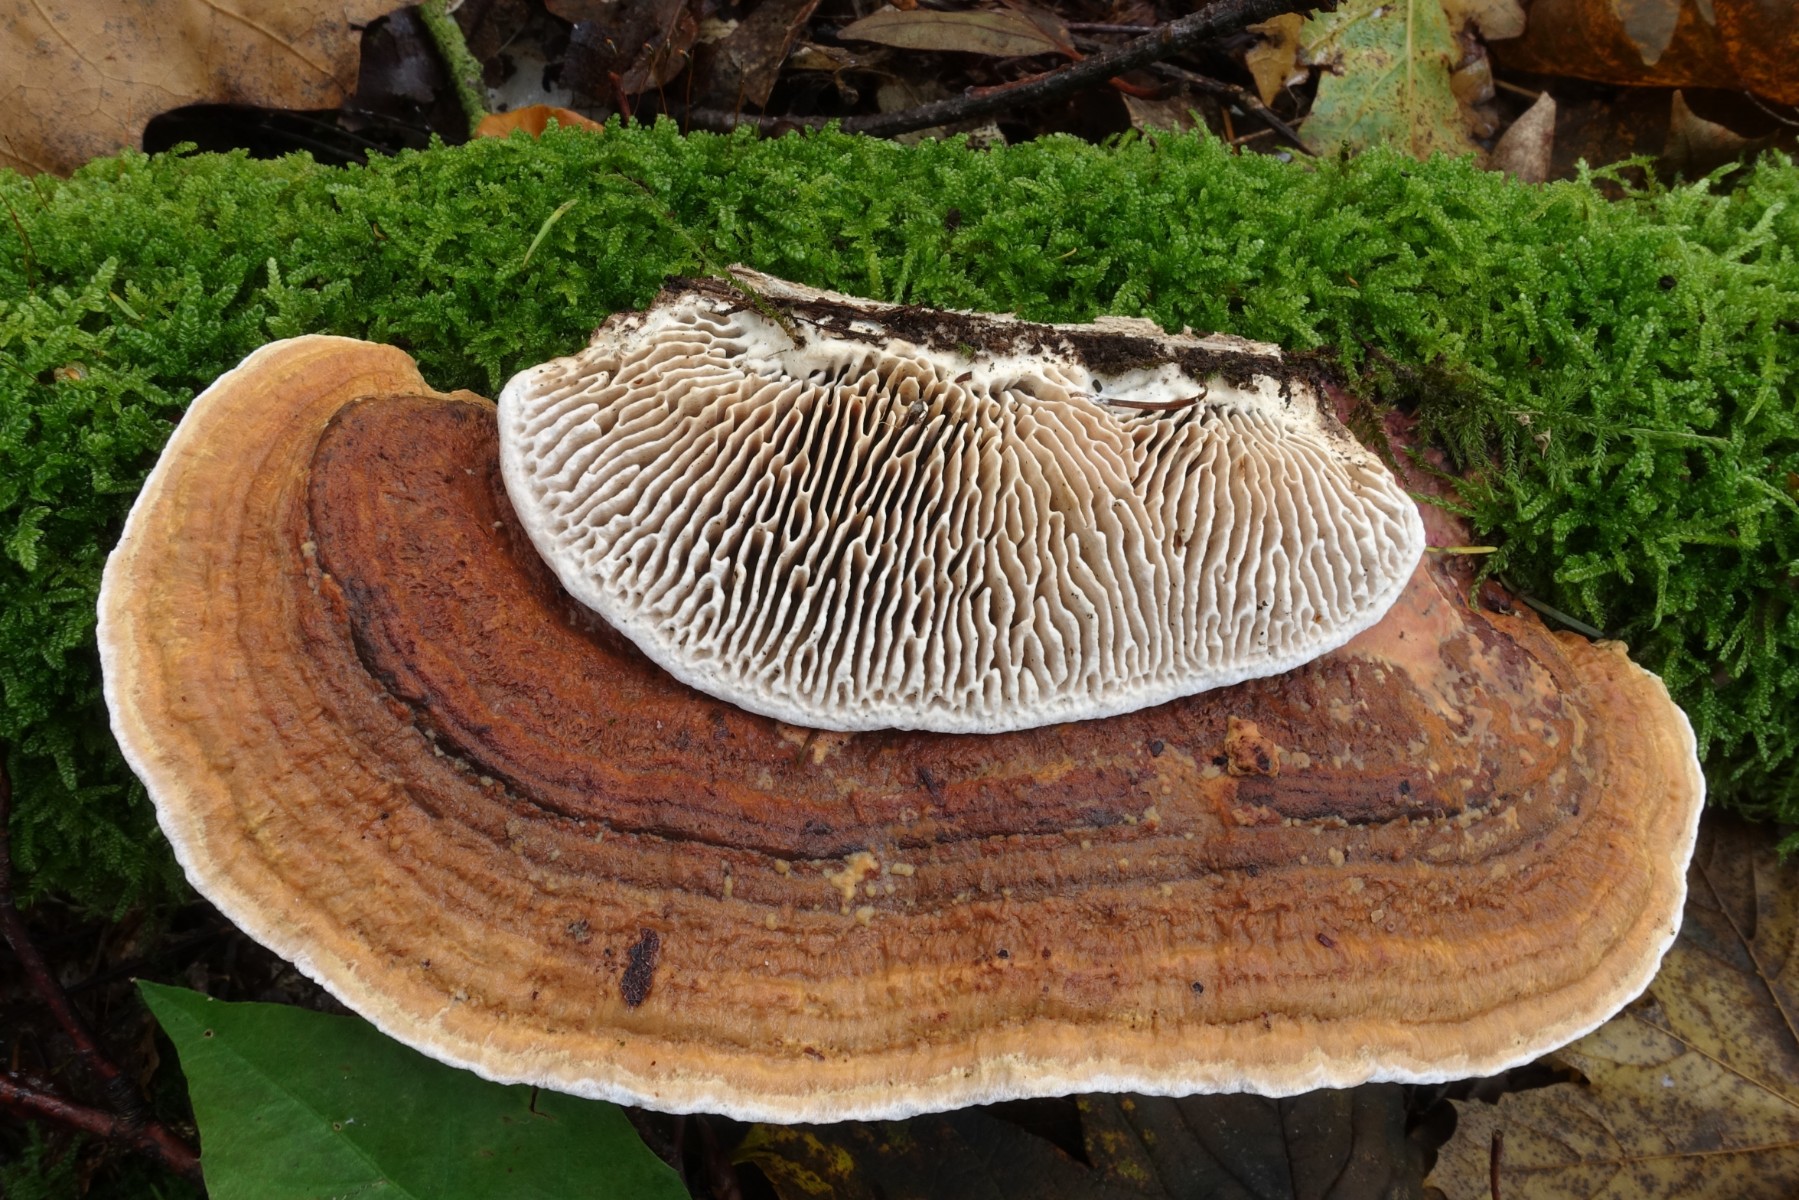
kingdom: Fungi
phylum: Basidiomycota
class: Agaricomycetes
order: Polyporales
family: Fomitopsidaceae
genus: Daedalea
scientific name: Daedalea quercina
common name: ege-labyrintsvamp
